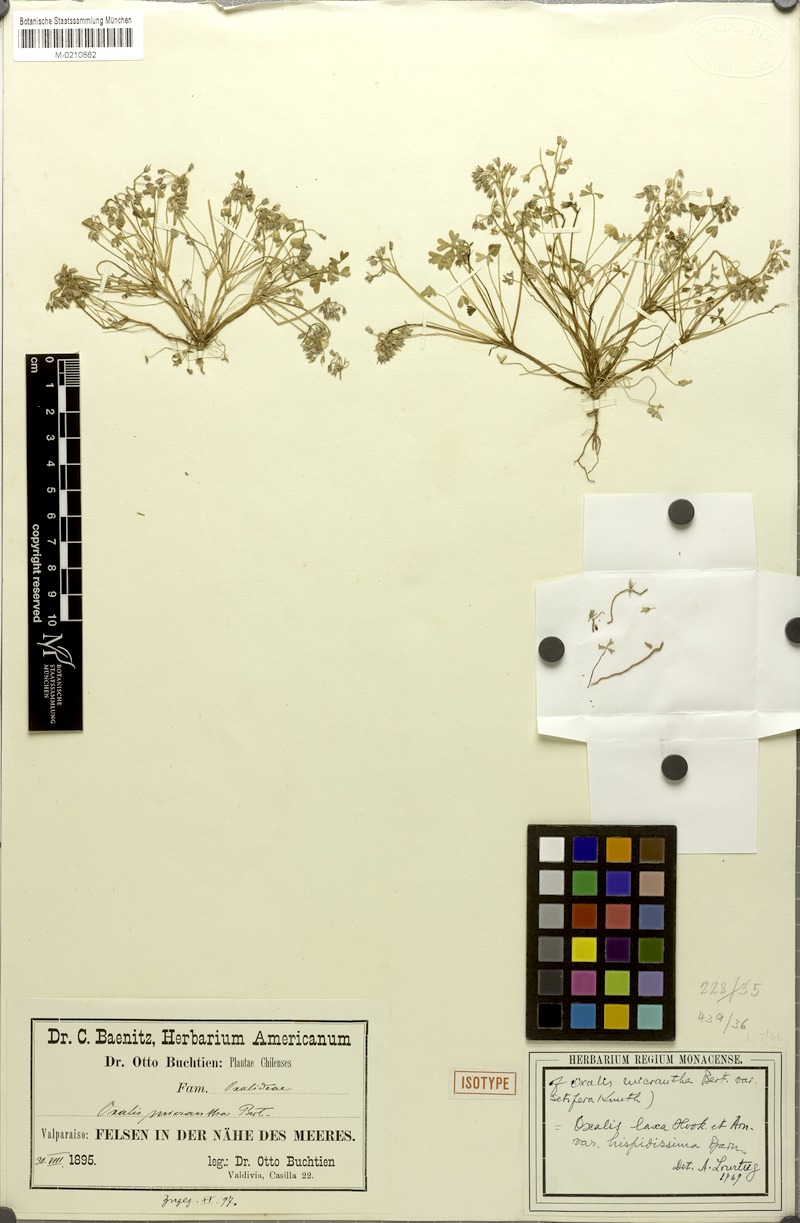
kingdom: Plantae
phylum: Tracheophyta
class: Magnoliopsida
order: Oxalidales
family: Oxalidaceae
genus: Oxalis
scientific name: Oxalis micrantha
